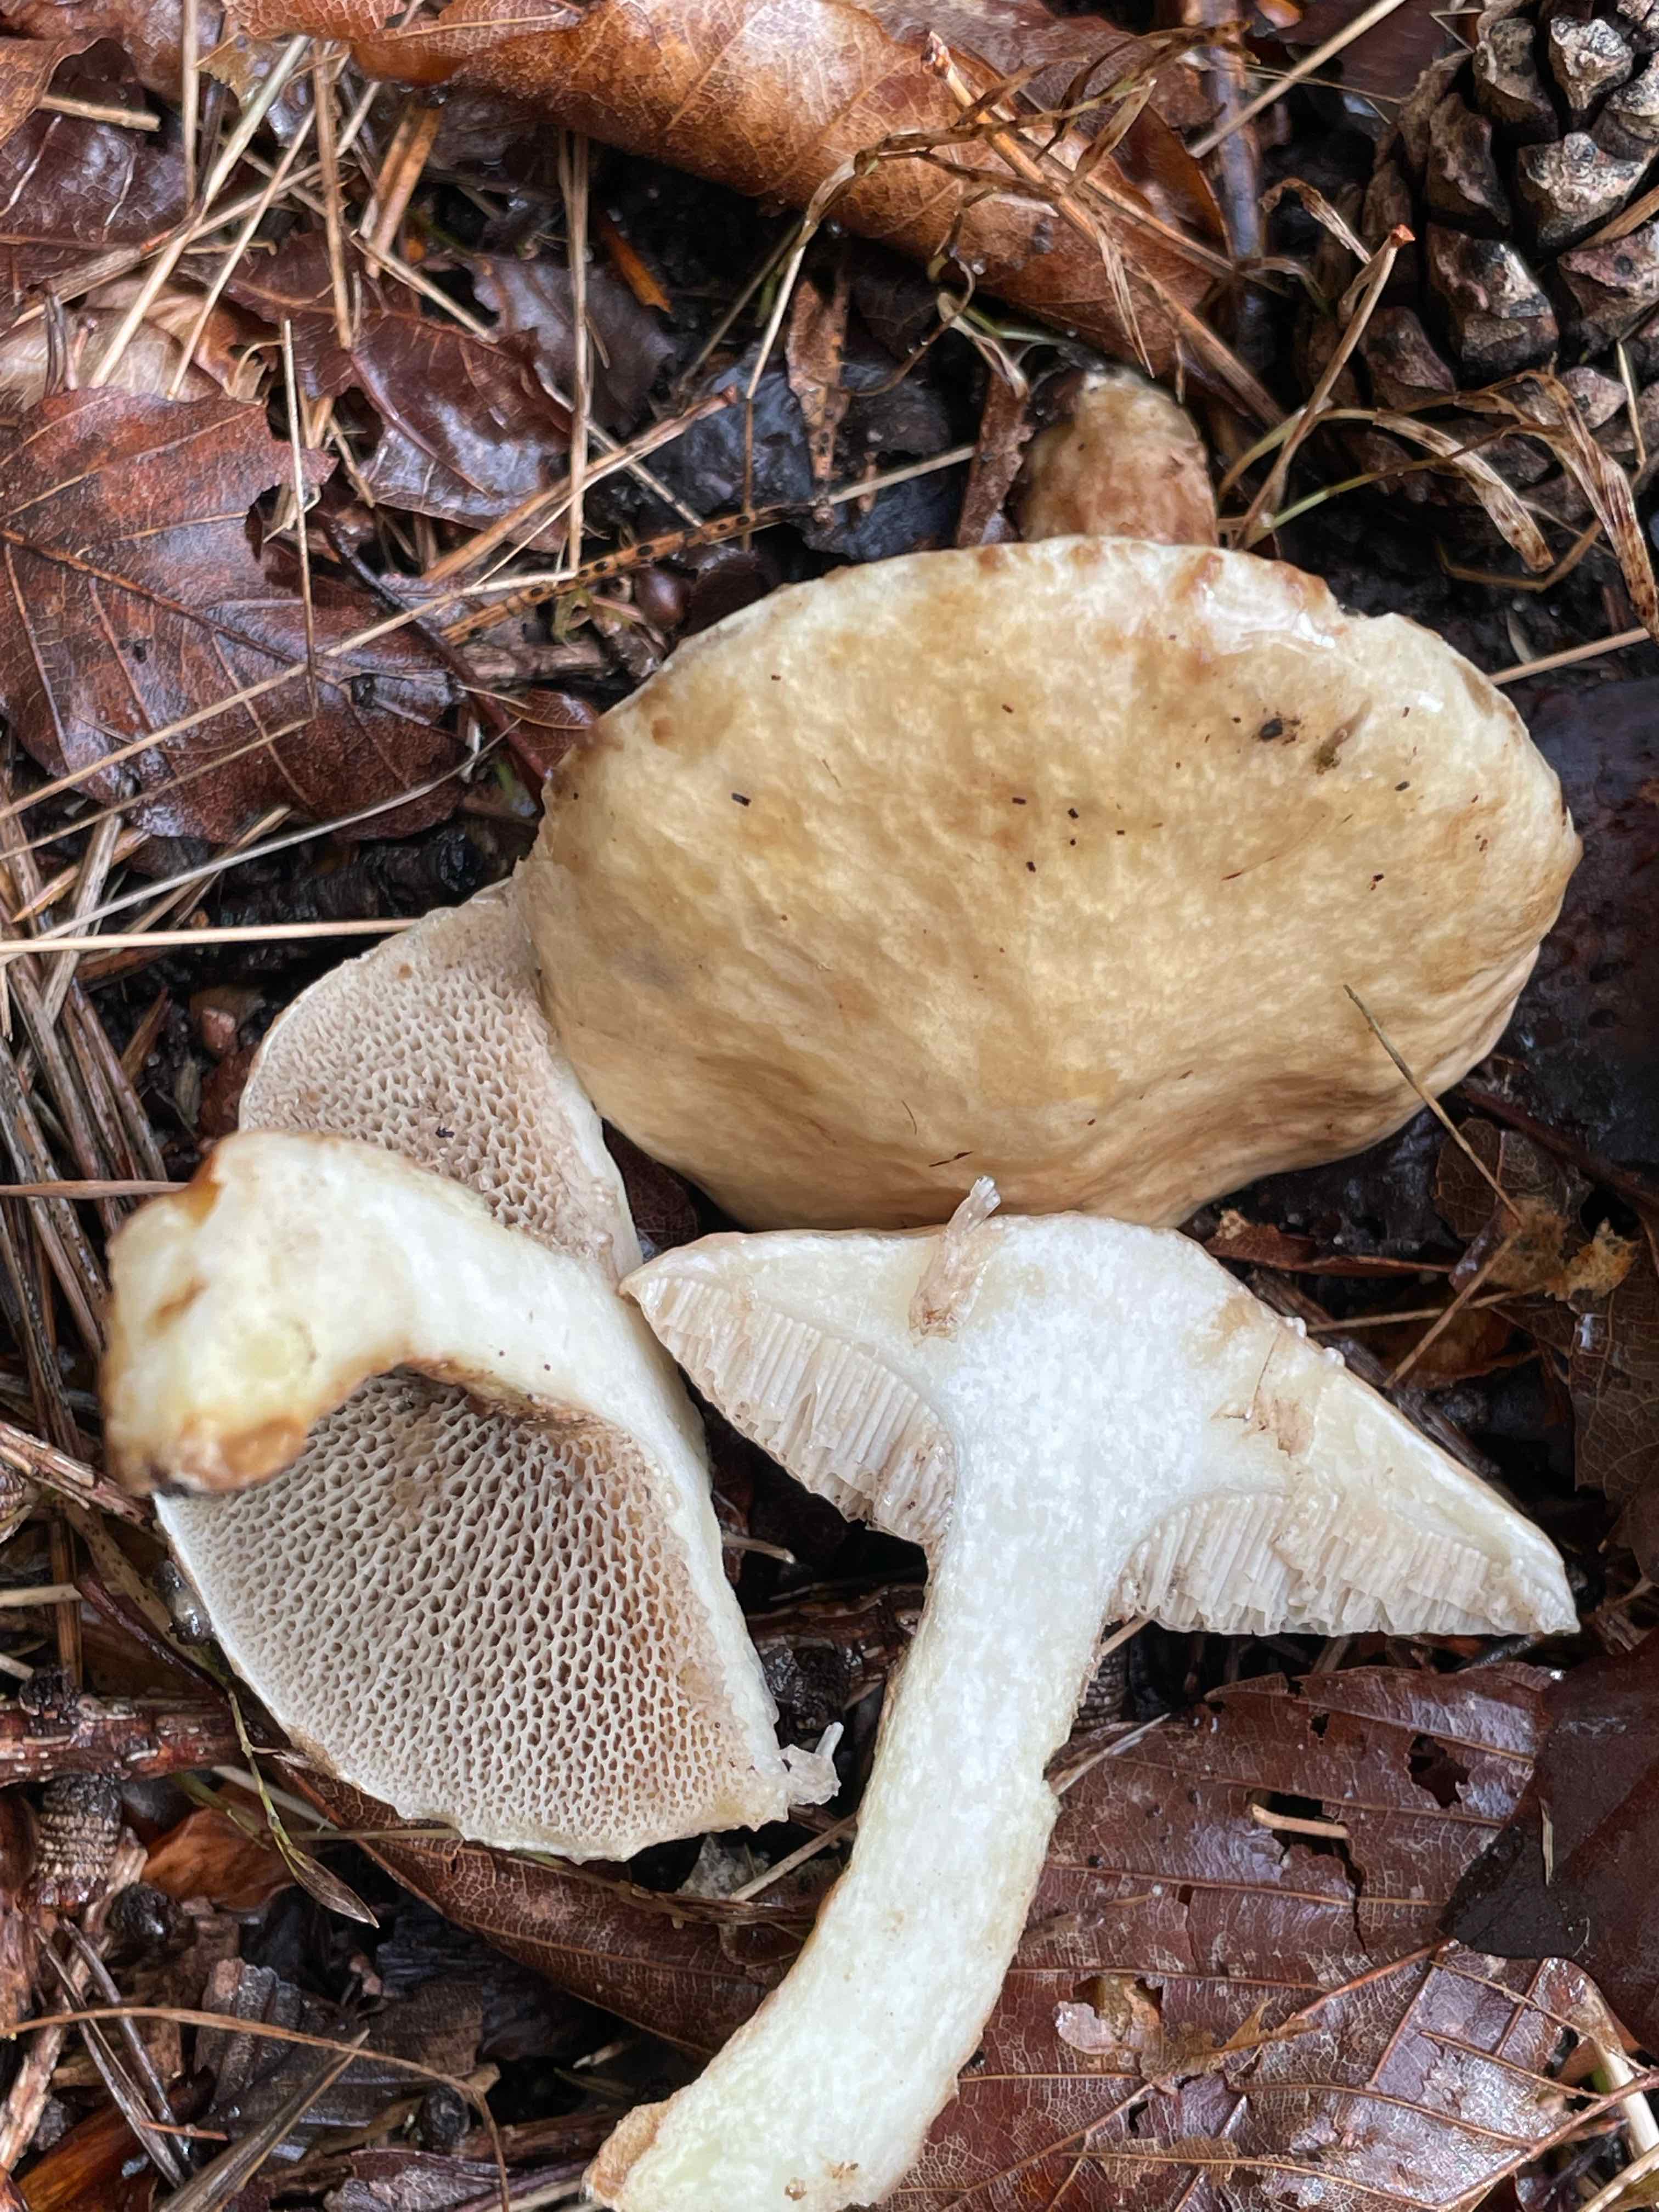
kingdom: Fungi
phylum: Basidiomycota
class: Agaricomycetes
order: Boletales
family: Suillaceae
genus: Suillus
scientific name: Suillus viscidus
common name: olivengrå slimrørhat
